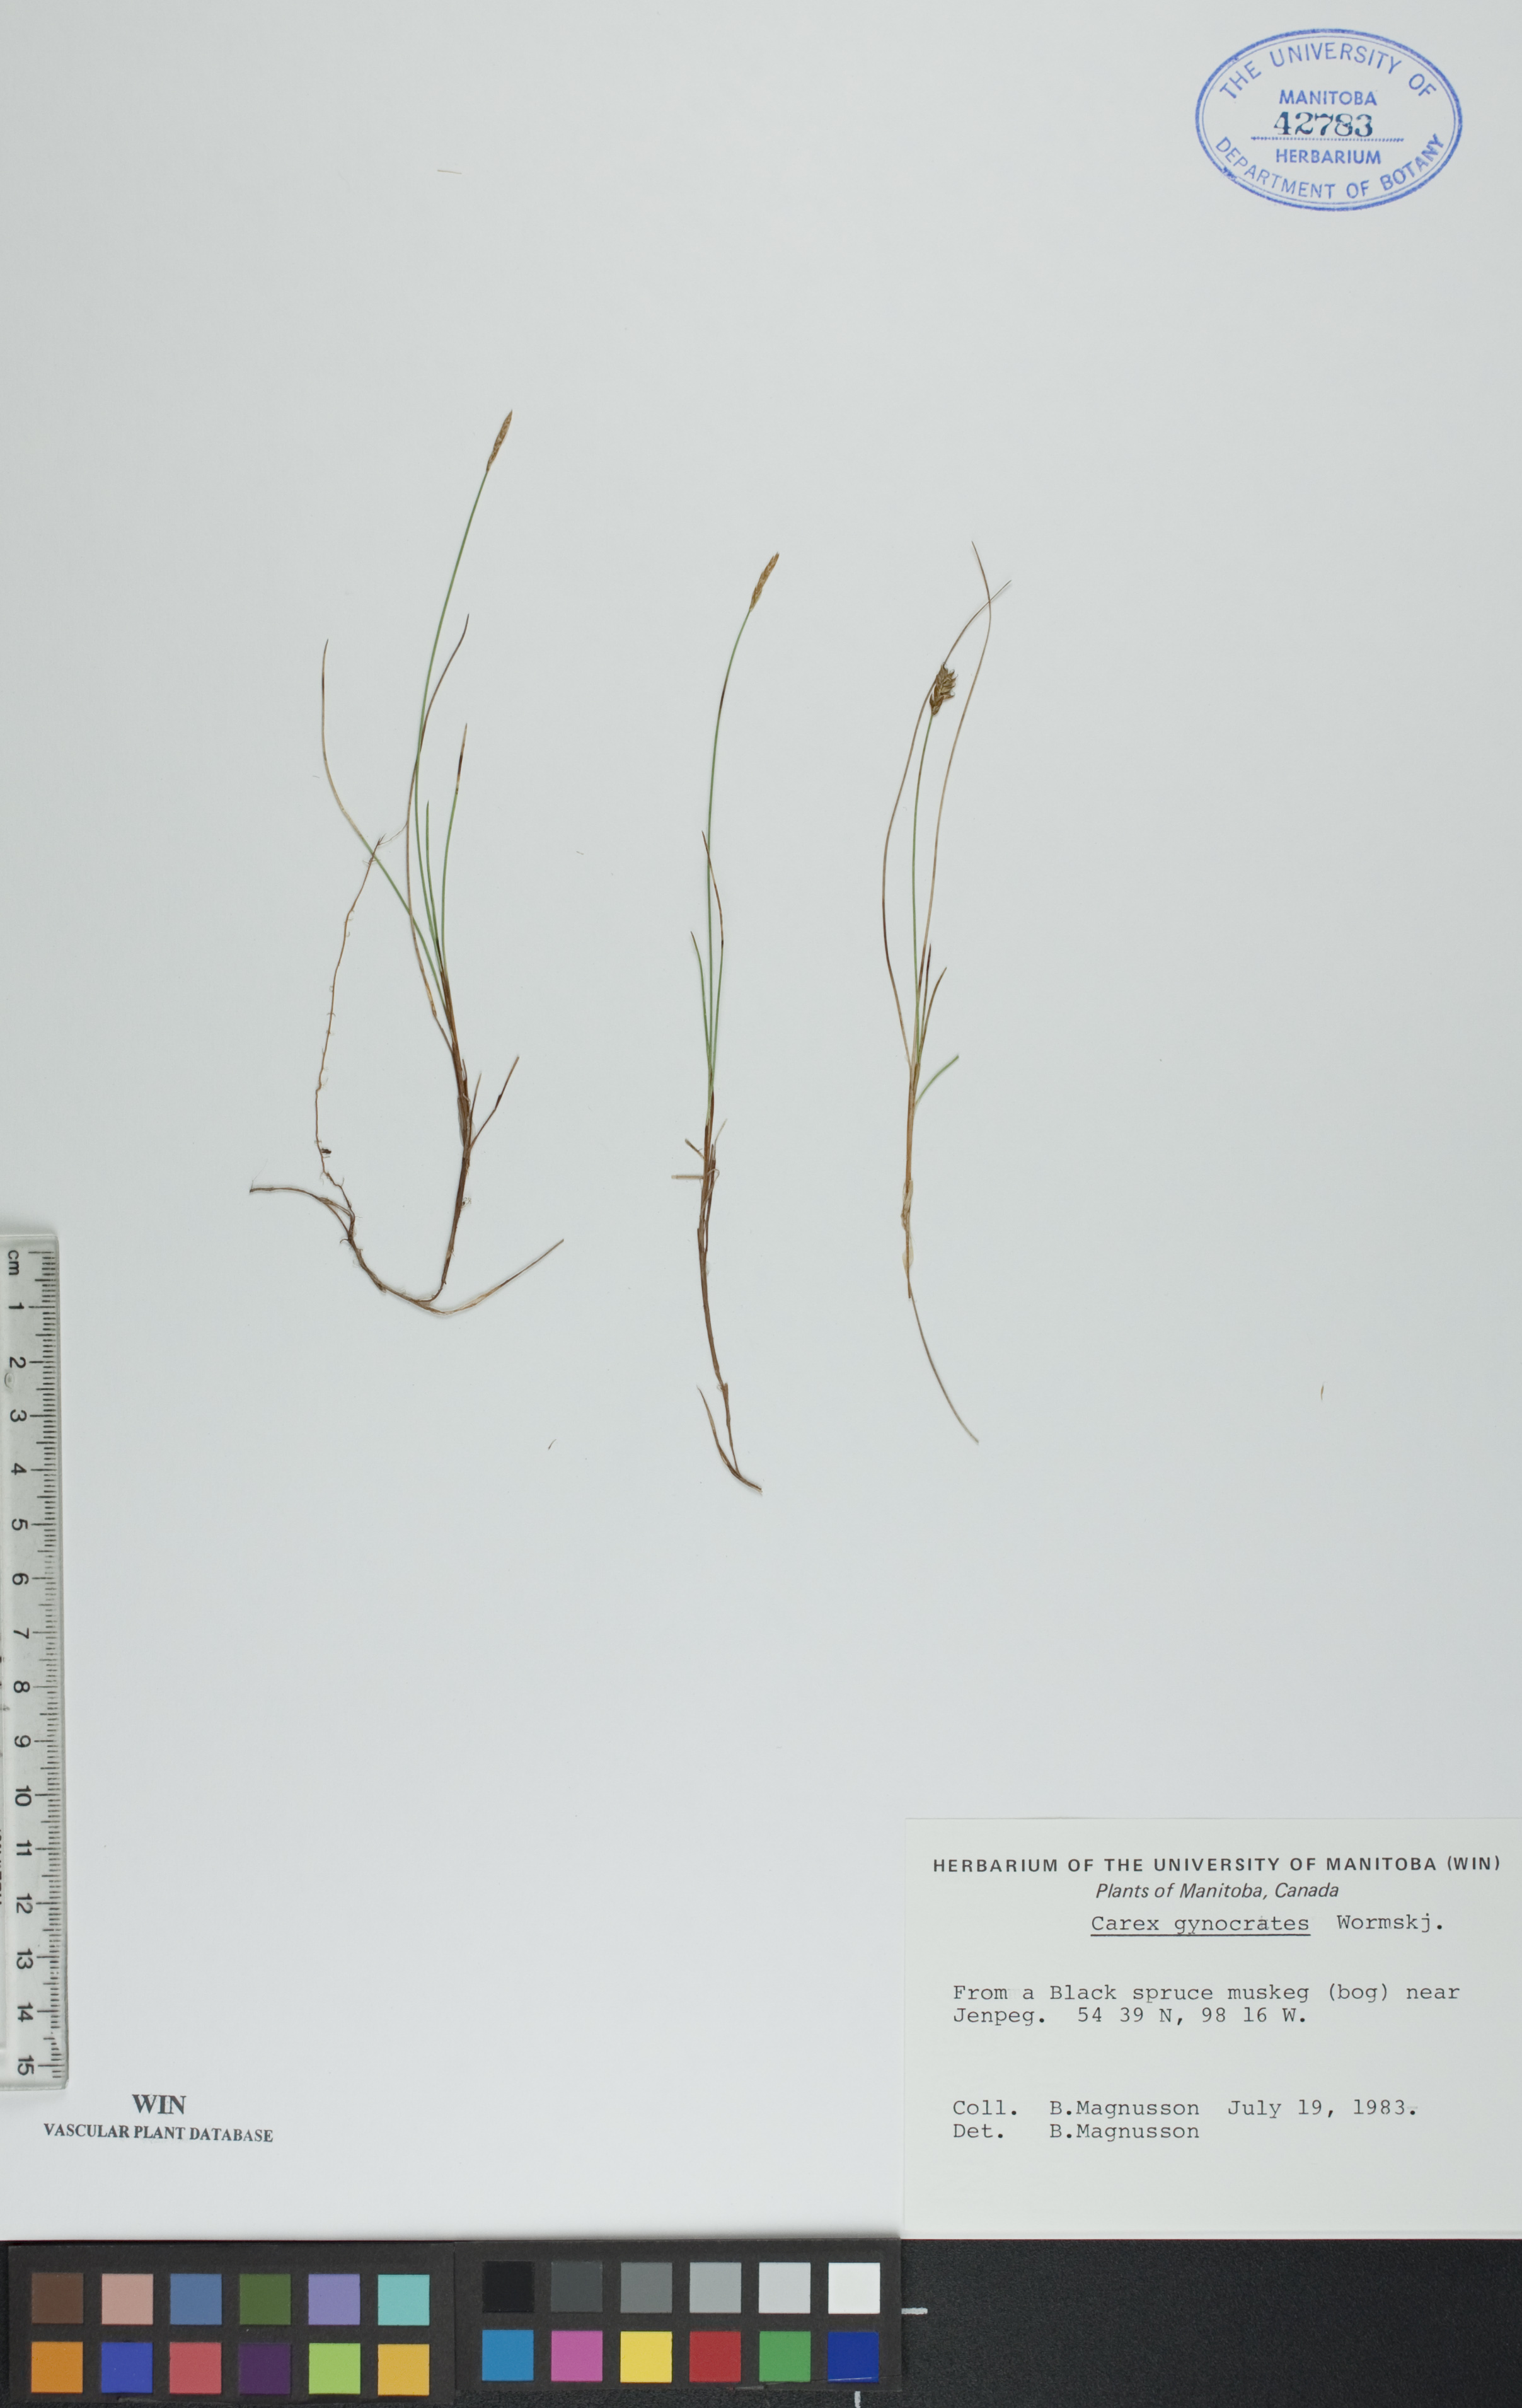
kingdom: Plantae
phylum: Tracheophyta
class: Liliopsida
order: Poales
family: Cyperaceae
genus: Carex
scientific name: Carex nardina
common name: Nard sedge
